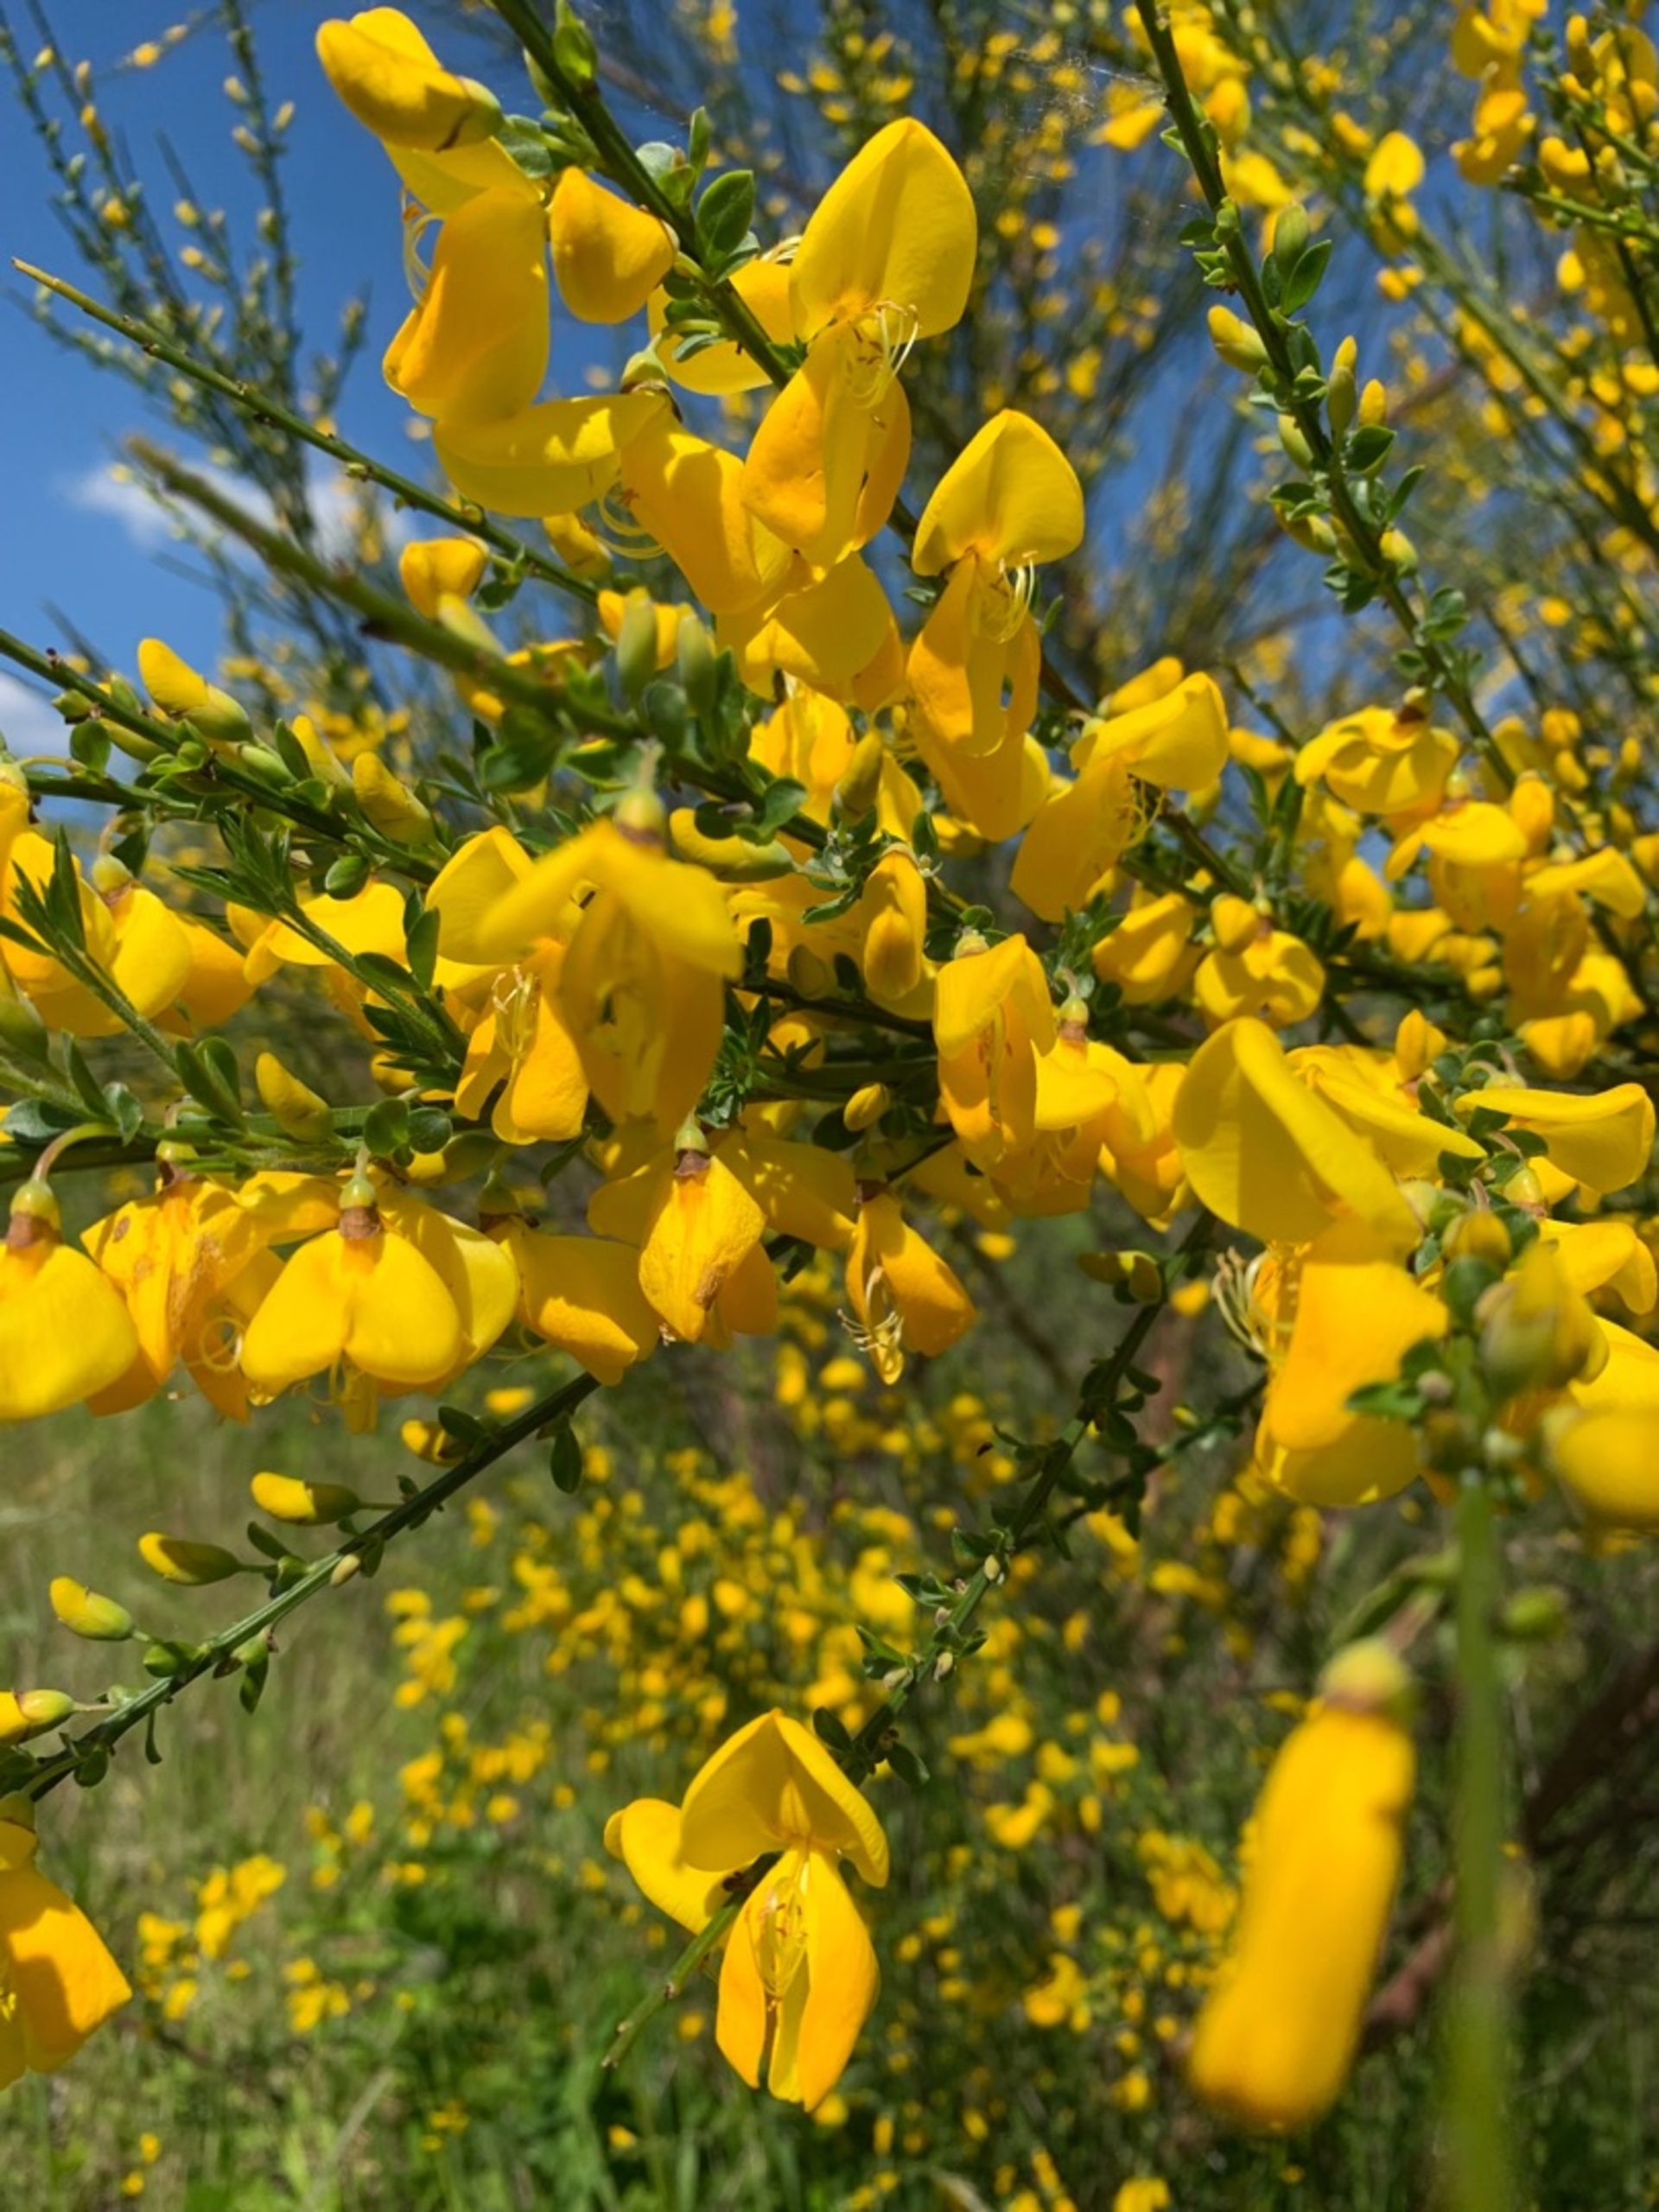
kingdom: Plantae
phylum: Tracheophyta
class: Magnoliopsida
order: Fabales
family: Fabaceae
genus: Cytisus
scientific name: Cytisus scoparius
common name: Almindelig gyvel
